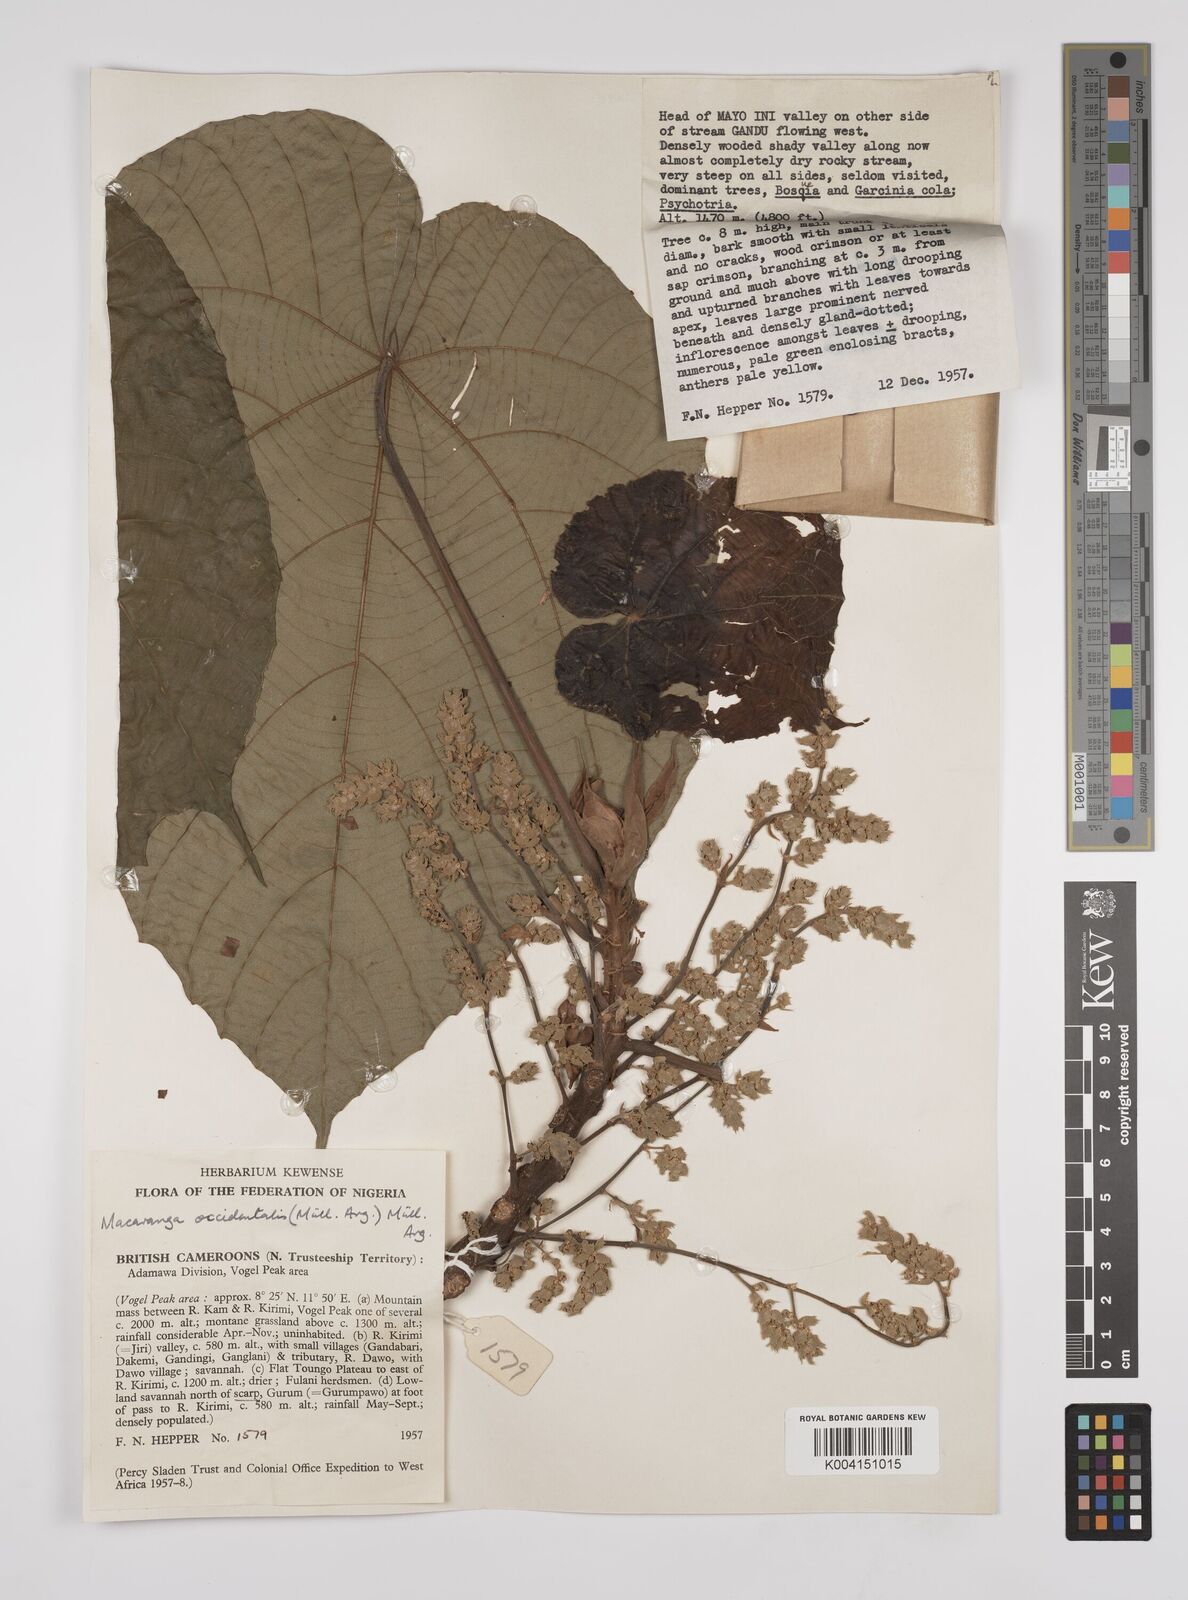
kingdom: Plantae
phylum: Tracheophyta
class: Magnoliopsida
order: Malpighiales
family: Euphorbiaceae
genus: Macaranga
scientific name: Macaranga occidentalis
